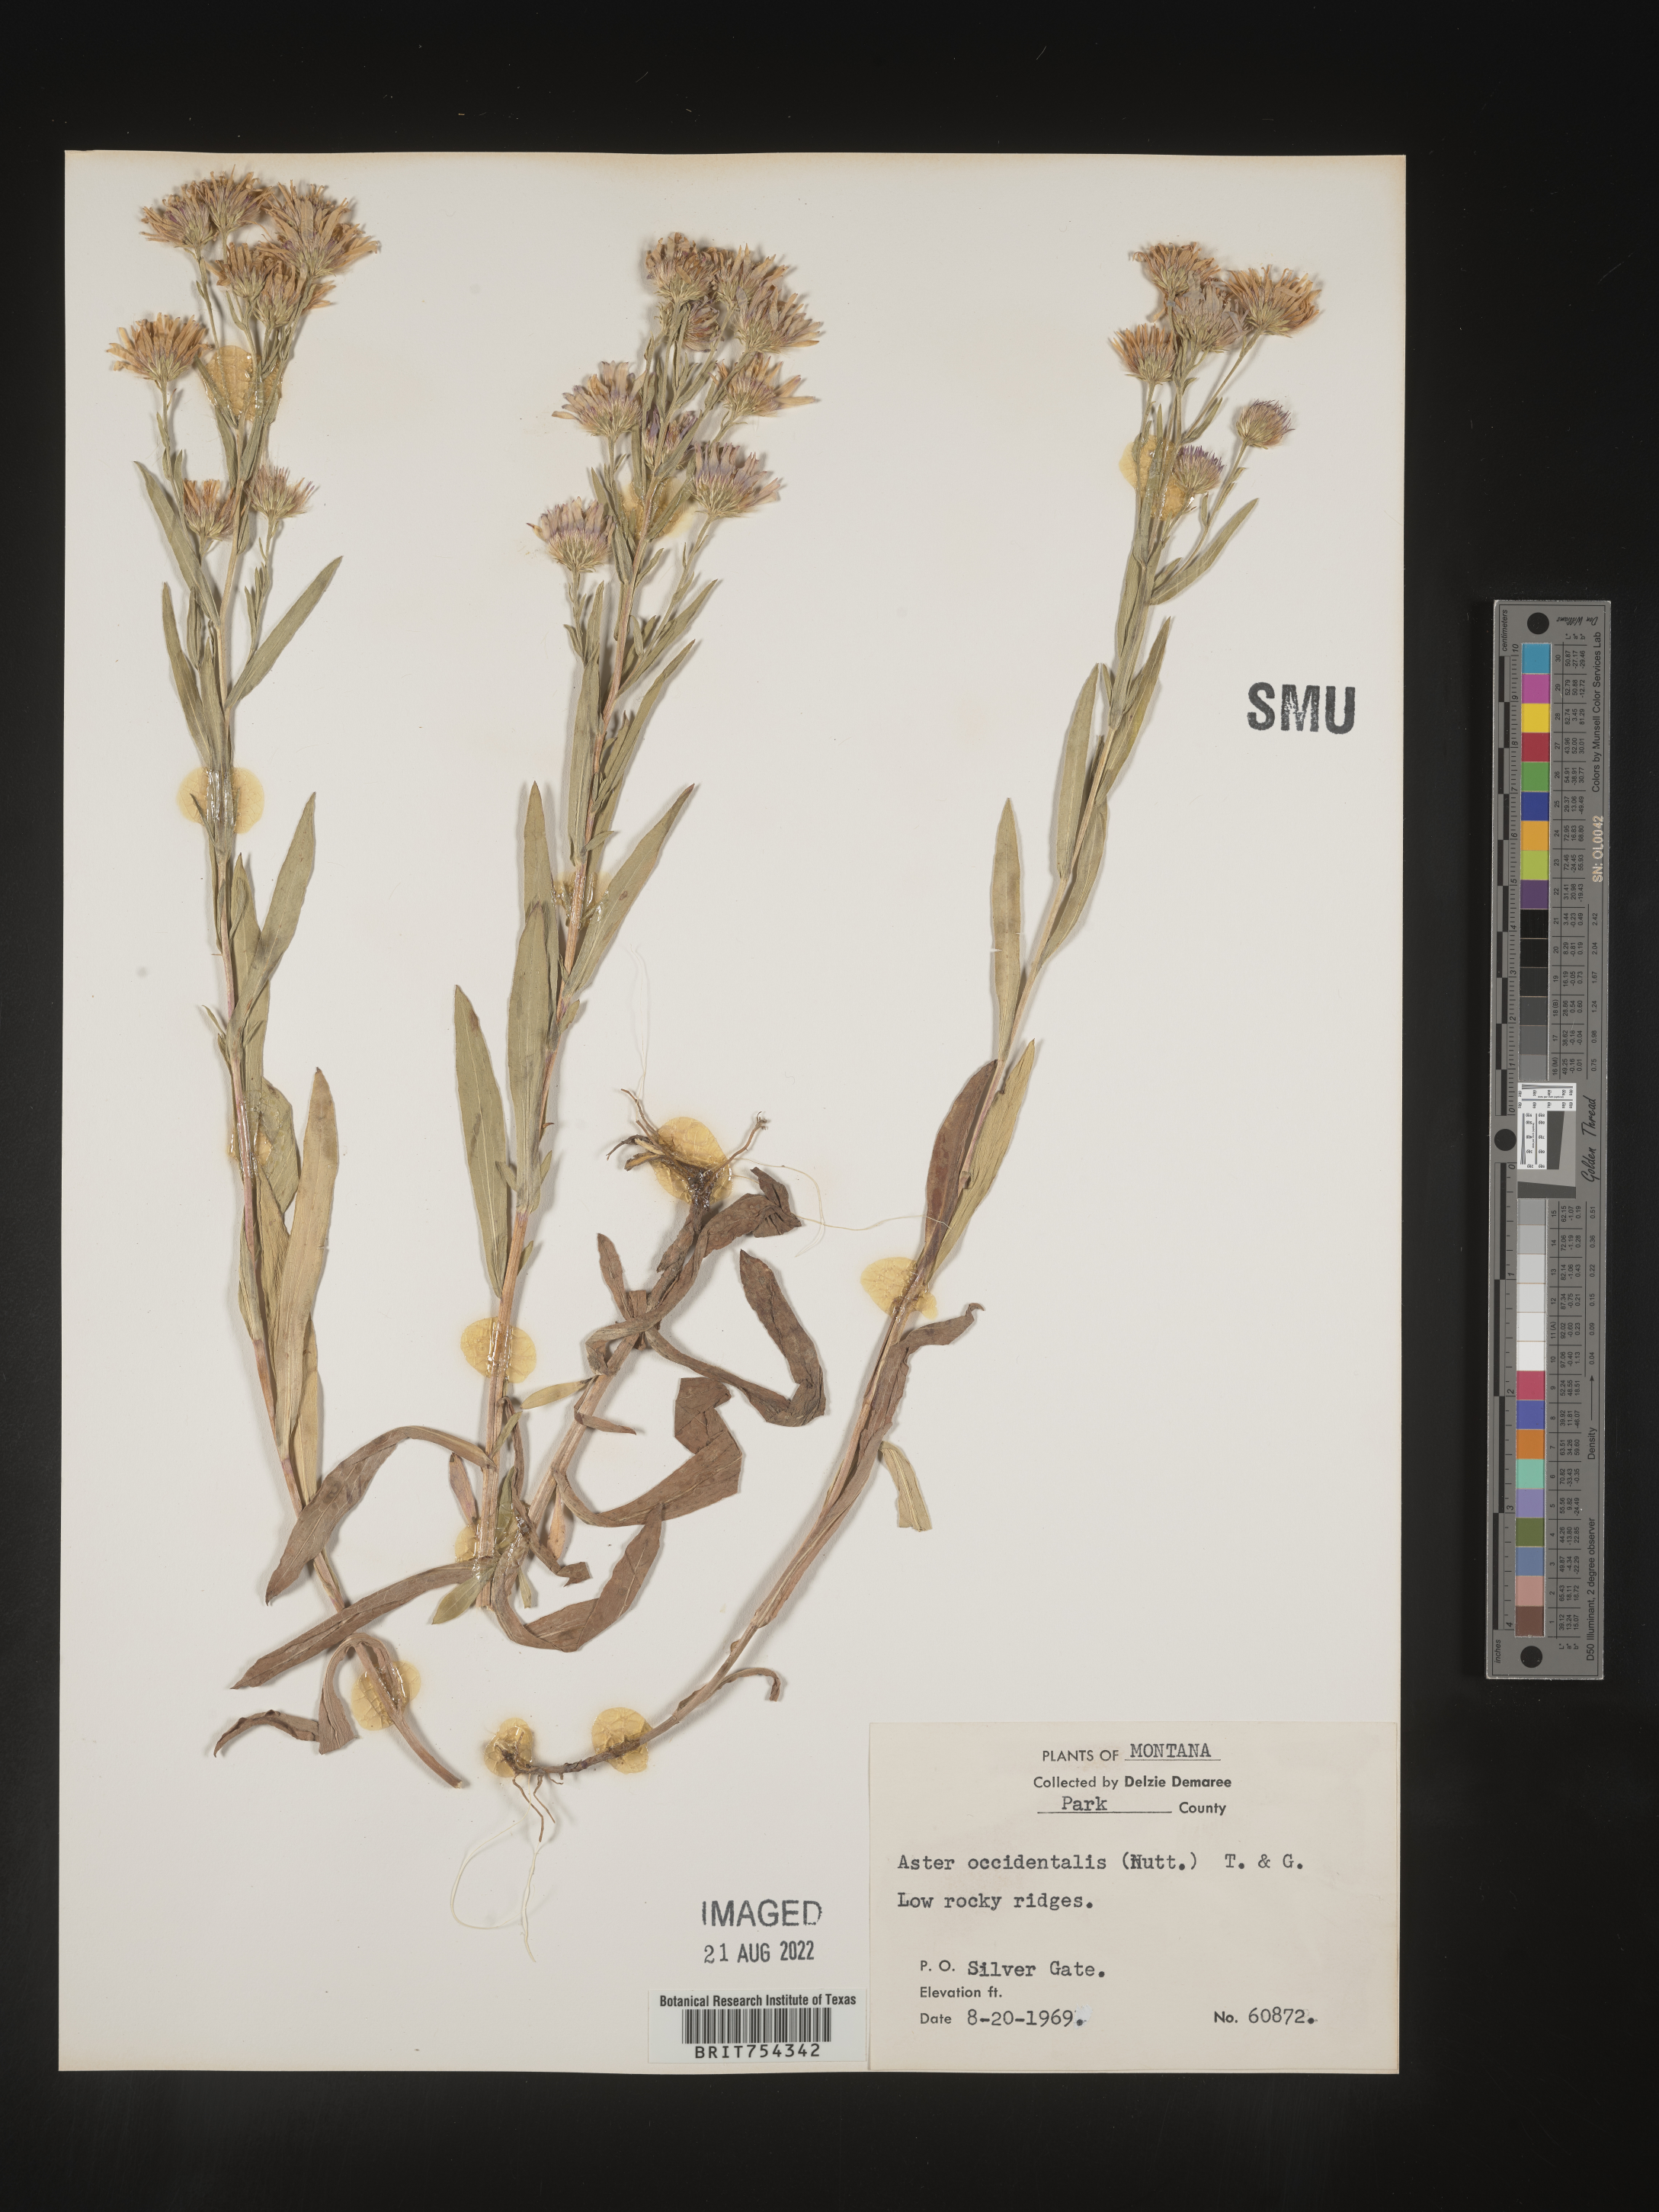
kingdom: Plantae
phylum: Tracheophyta
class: Magnoliopsida
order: Asterales
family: Asteraceae
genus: Symphyotrichum
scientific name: Symphyotrichum spathulatum
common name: Western mountain aster
